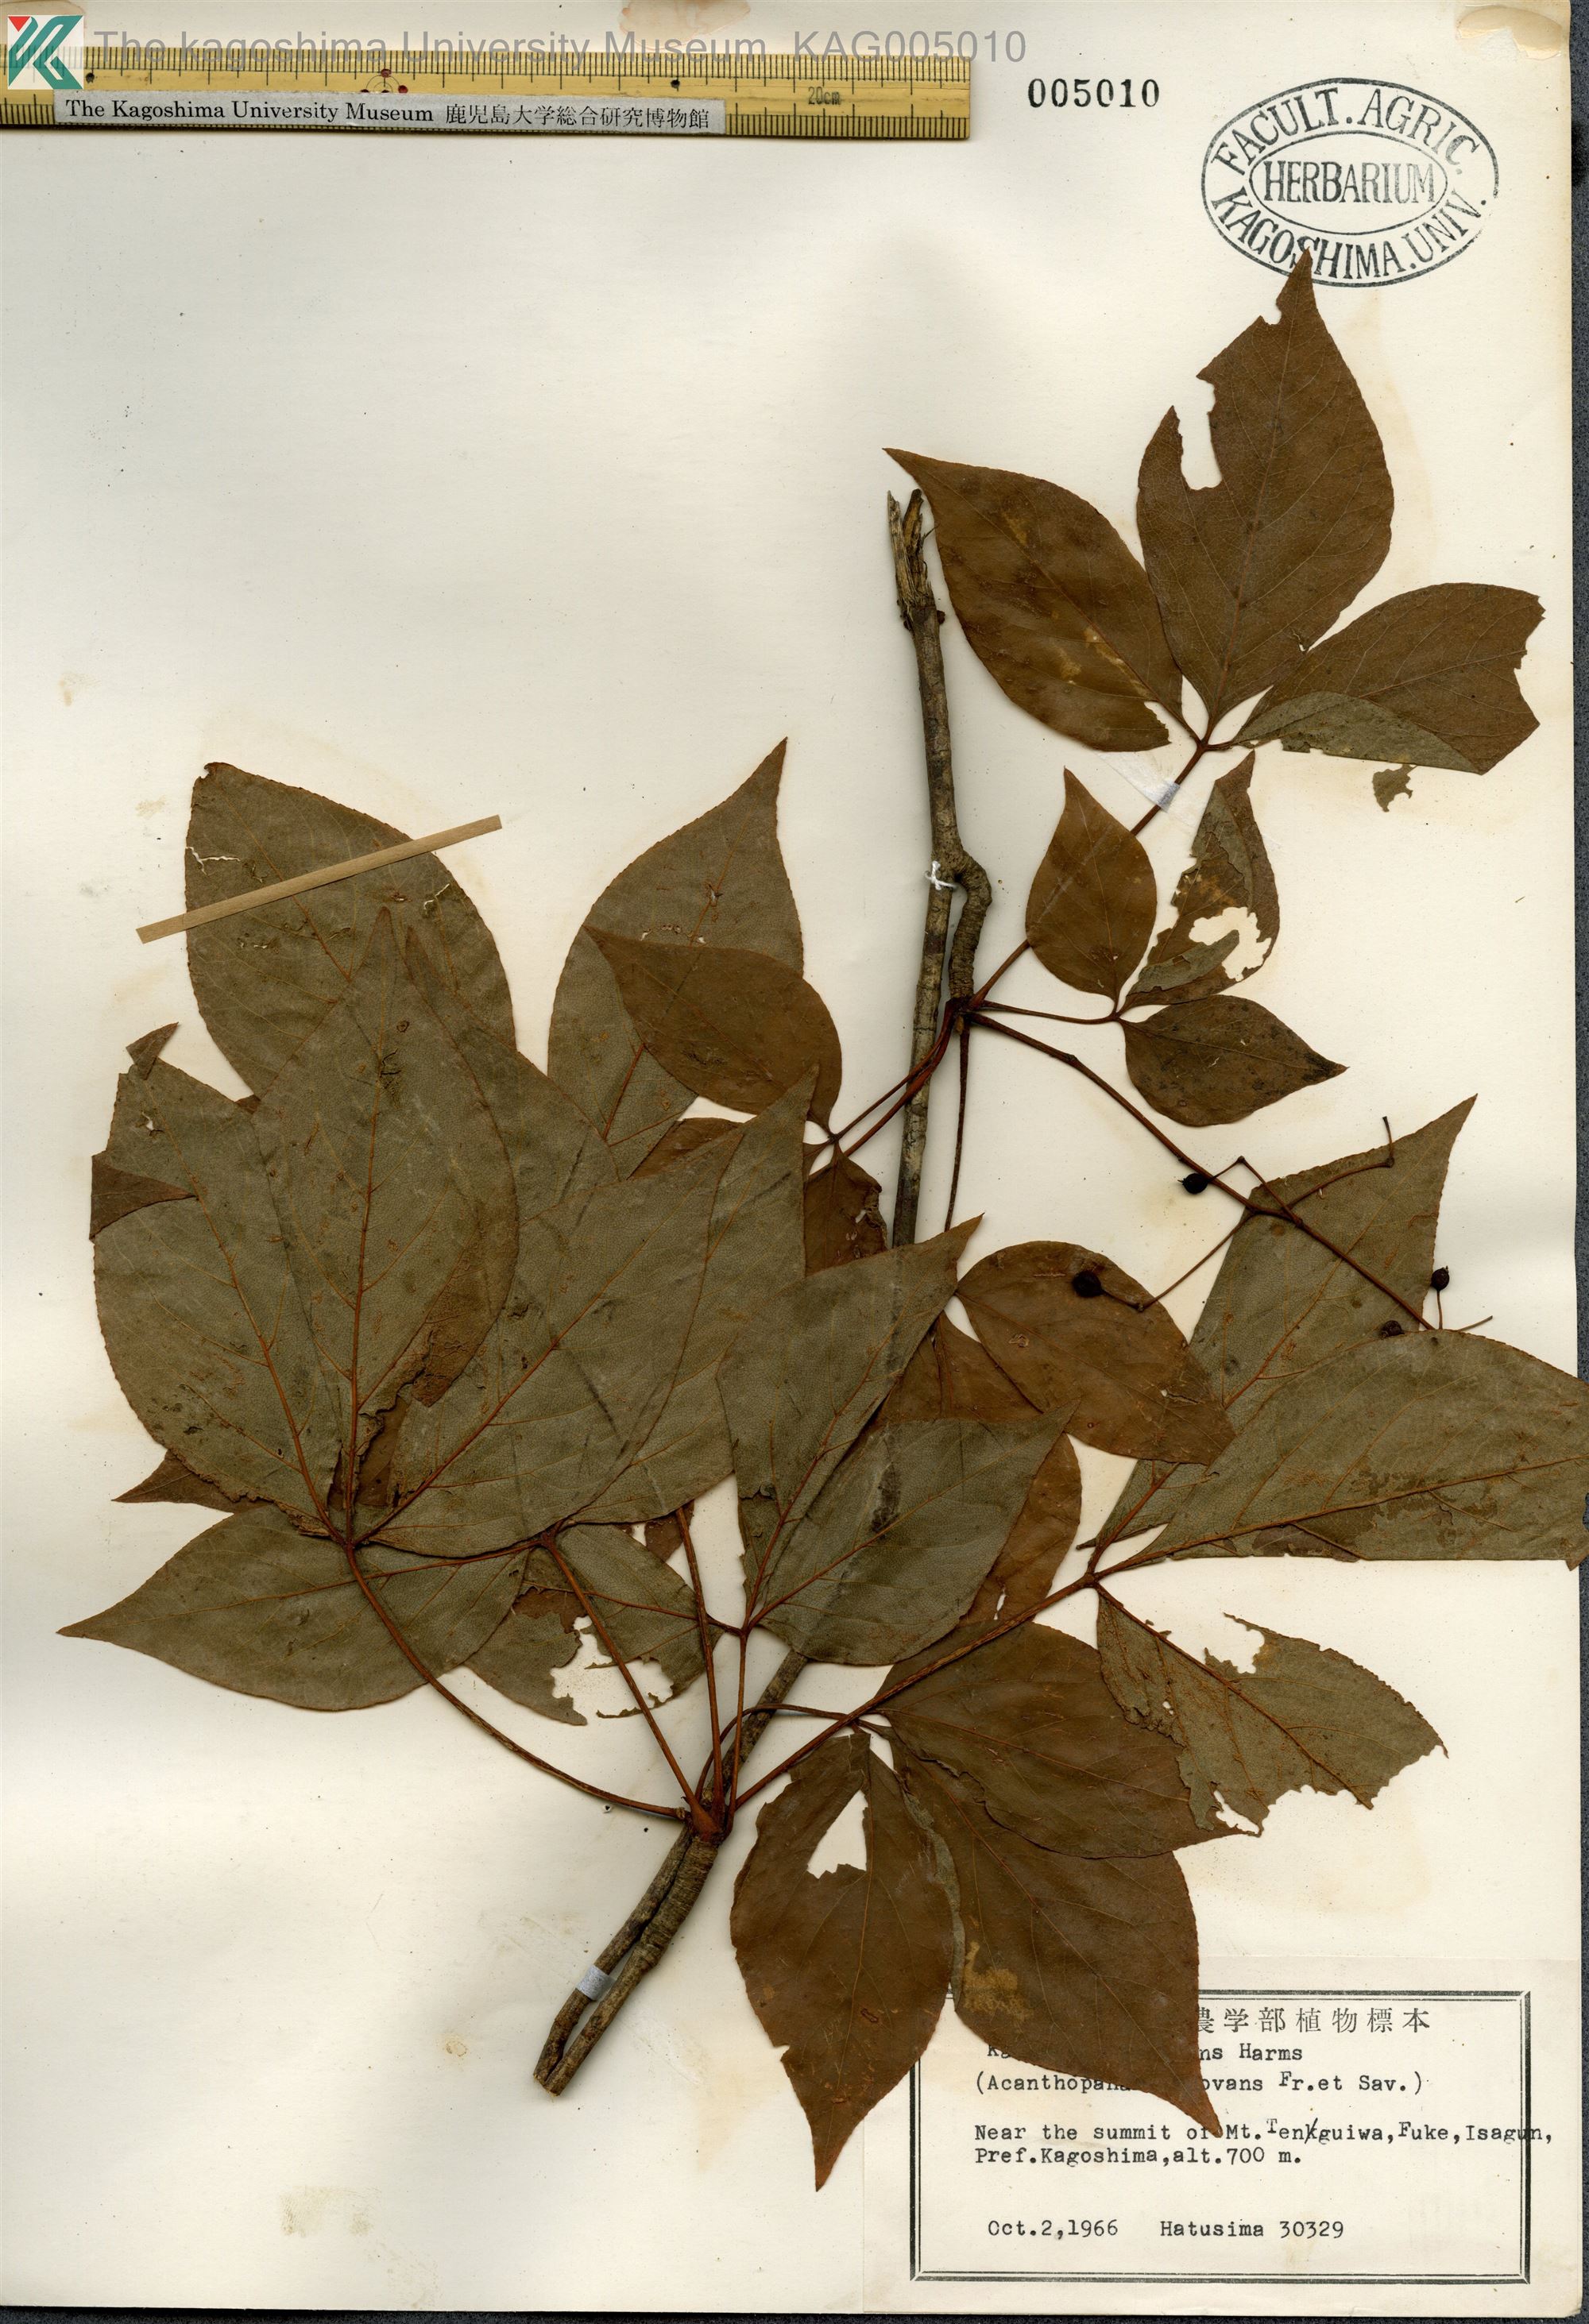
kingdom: Plantae
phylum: Tracheophyta
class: Magnoliopsida
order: Apiales
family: Araliaceae
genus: Gamblea
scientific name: Gamblea innovans
